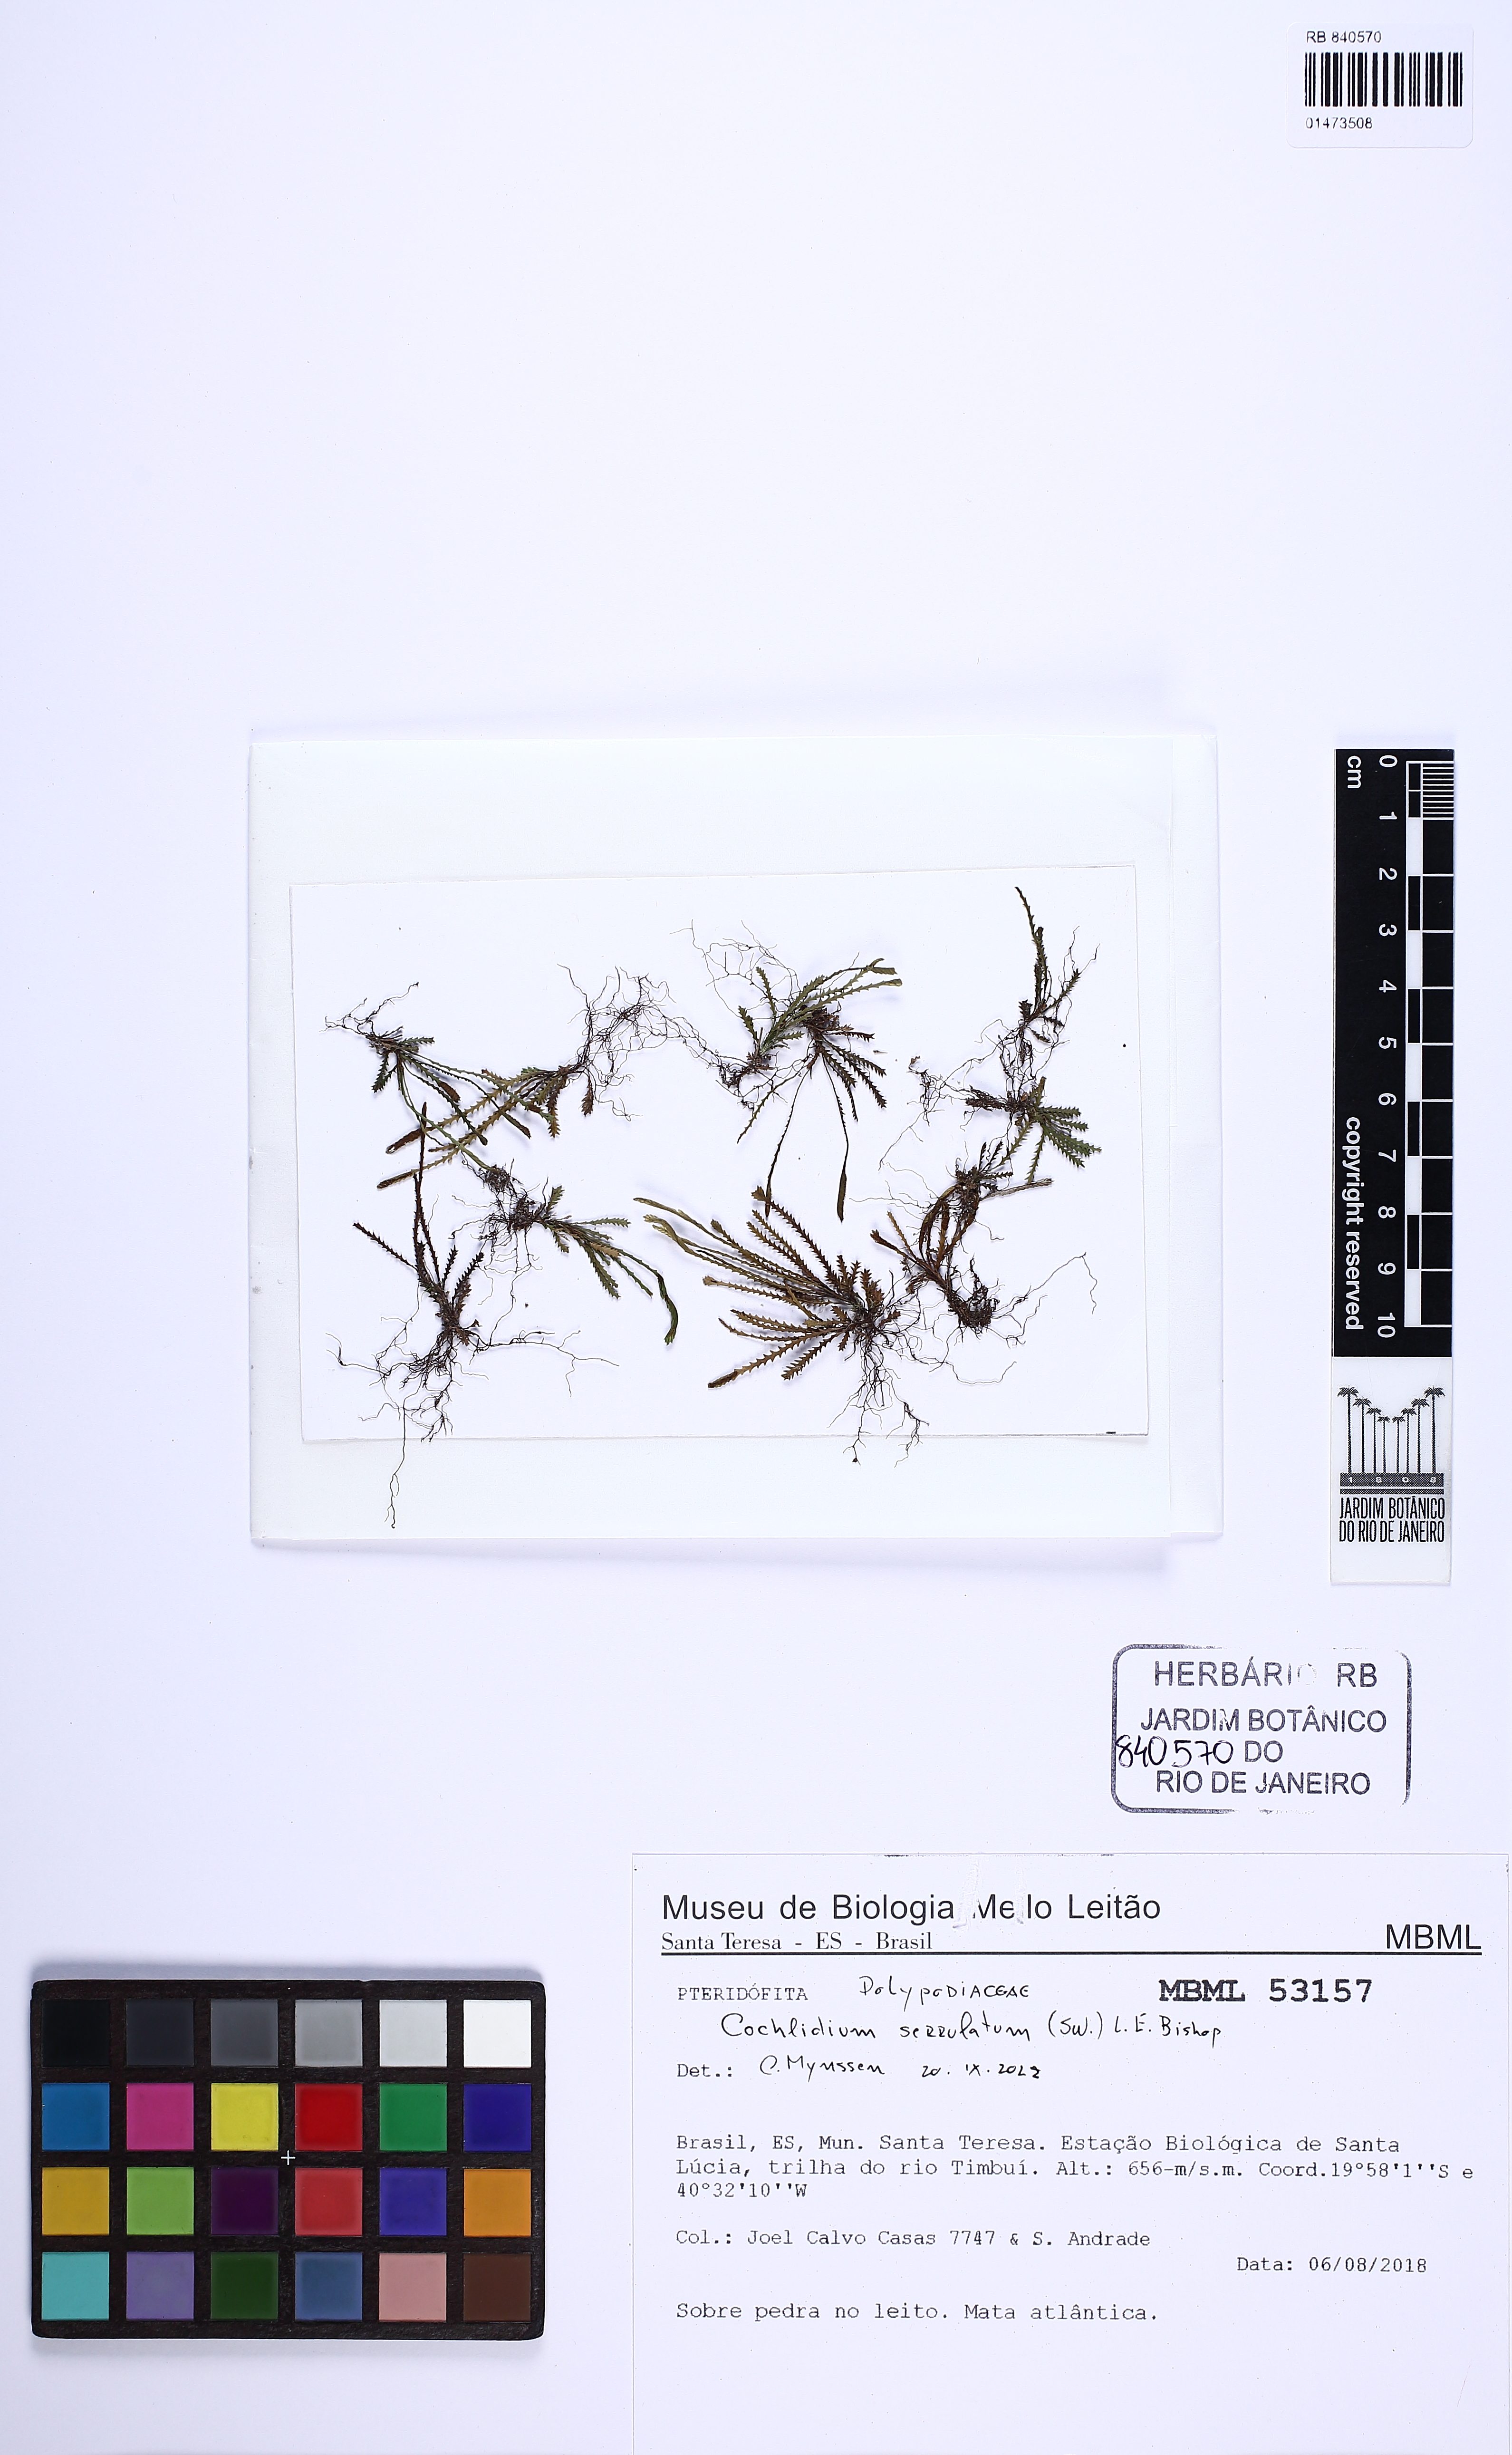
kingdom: Plantae
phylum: Tracheophyta
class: Polypodiopsida
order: Polypodiales
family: Polypodiaceae
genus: Cochlidium
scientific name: Cochlidium serrulatum
